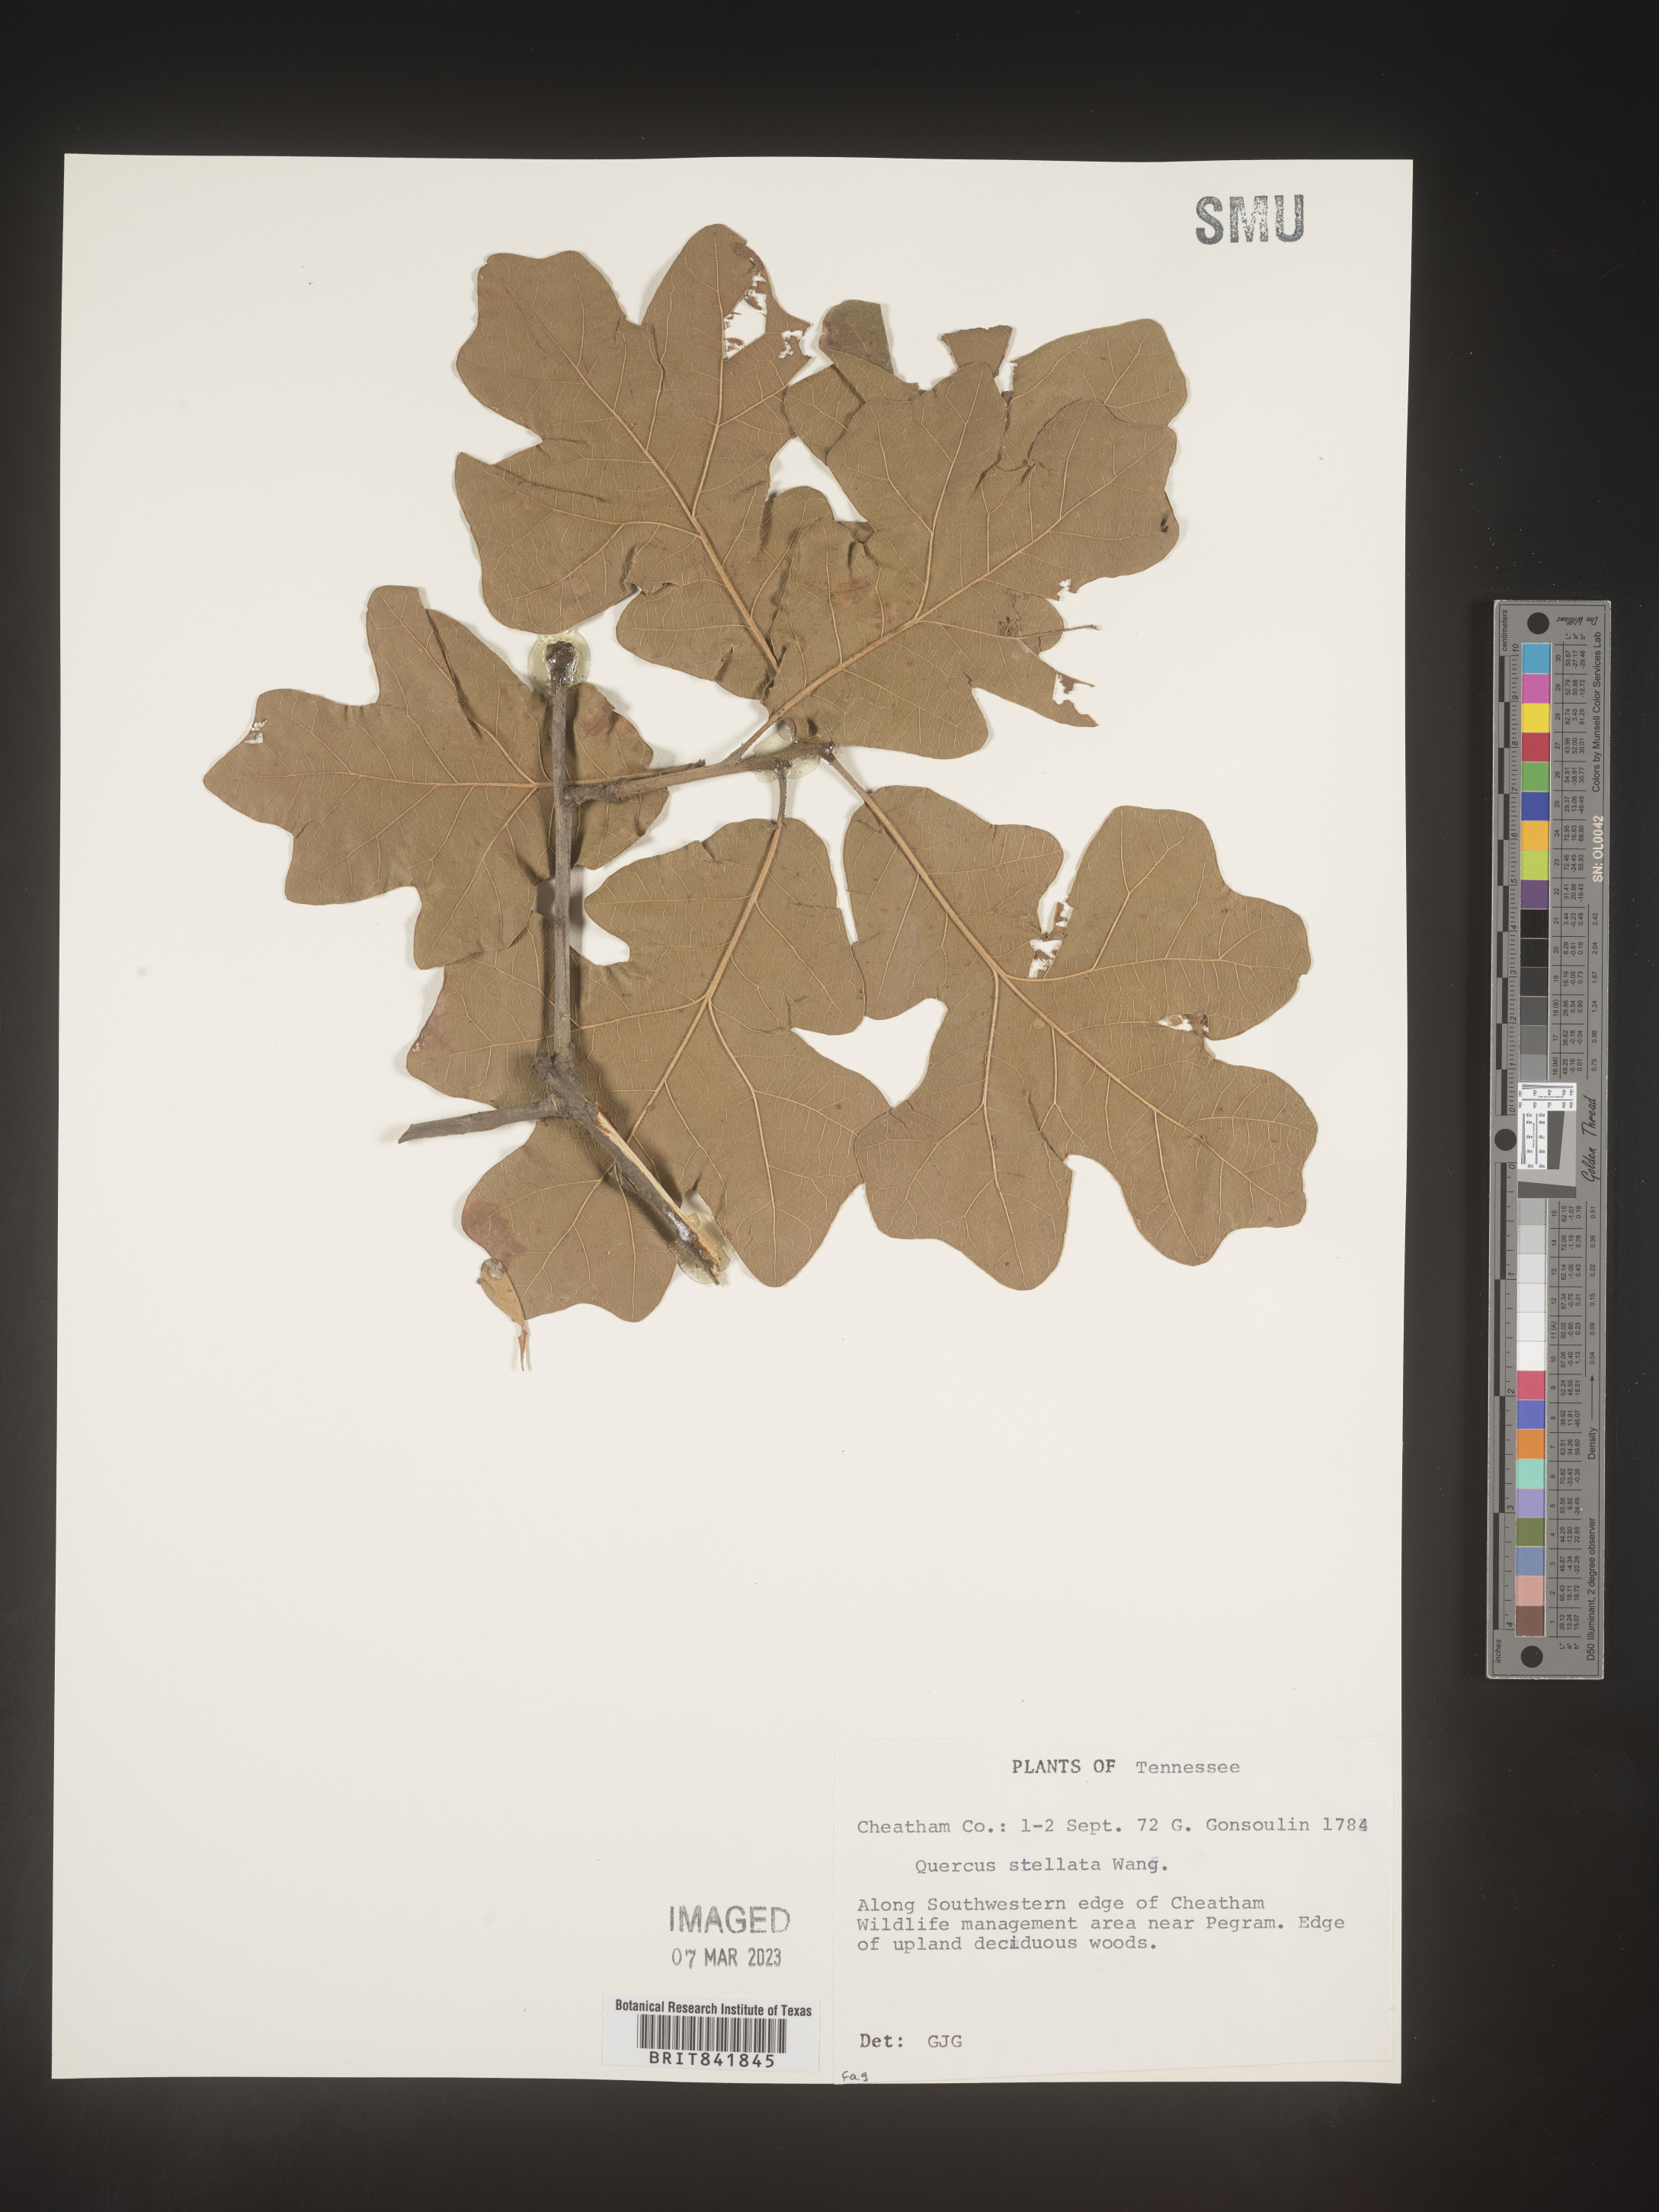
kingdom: Plantae
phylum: Tracheophyta
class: Magnoliopsida
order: Fagales
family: Fagaceae
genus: Quercus
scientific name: Quercus stellata
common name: Post oak
